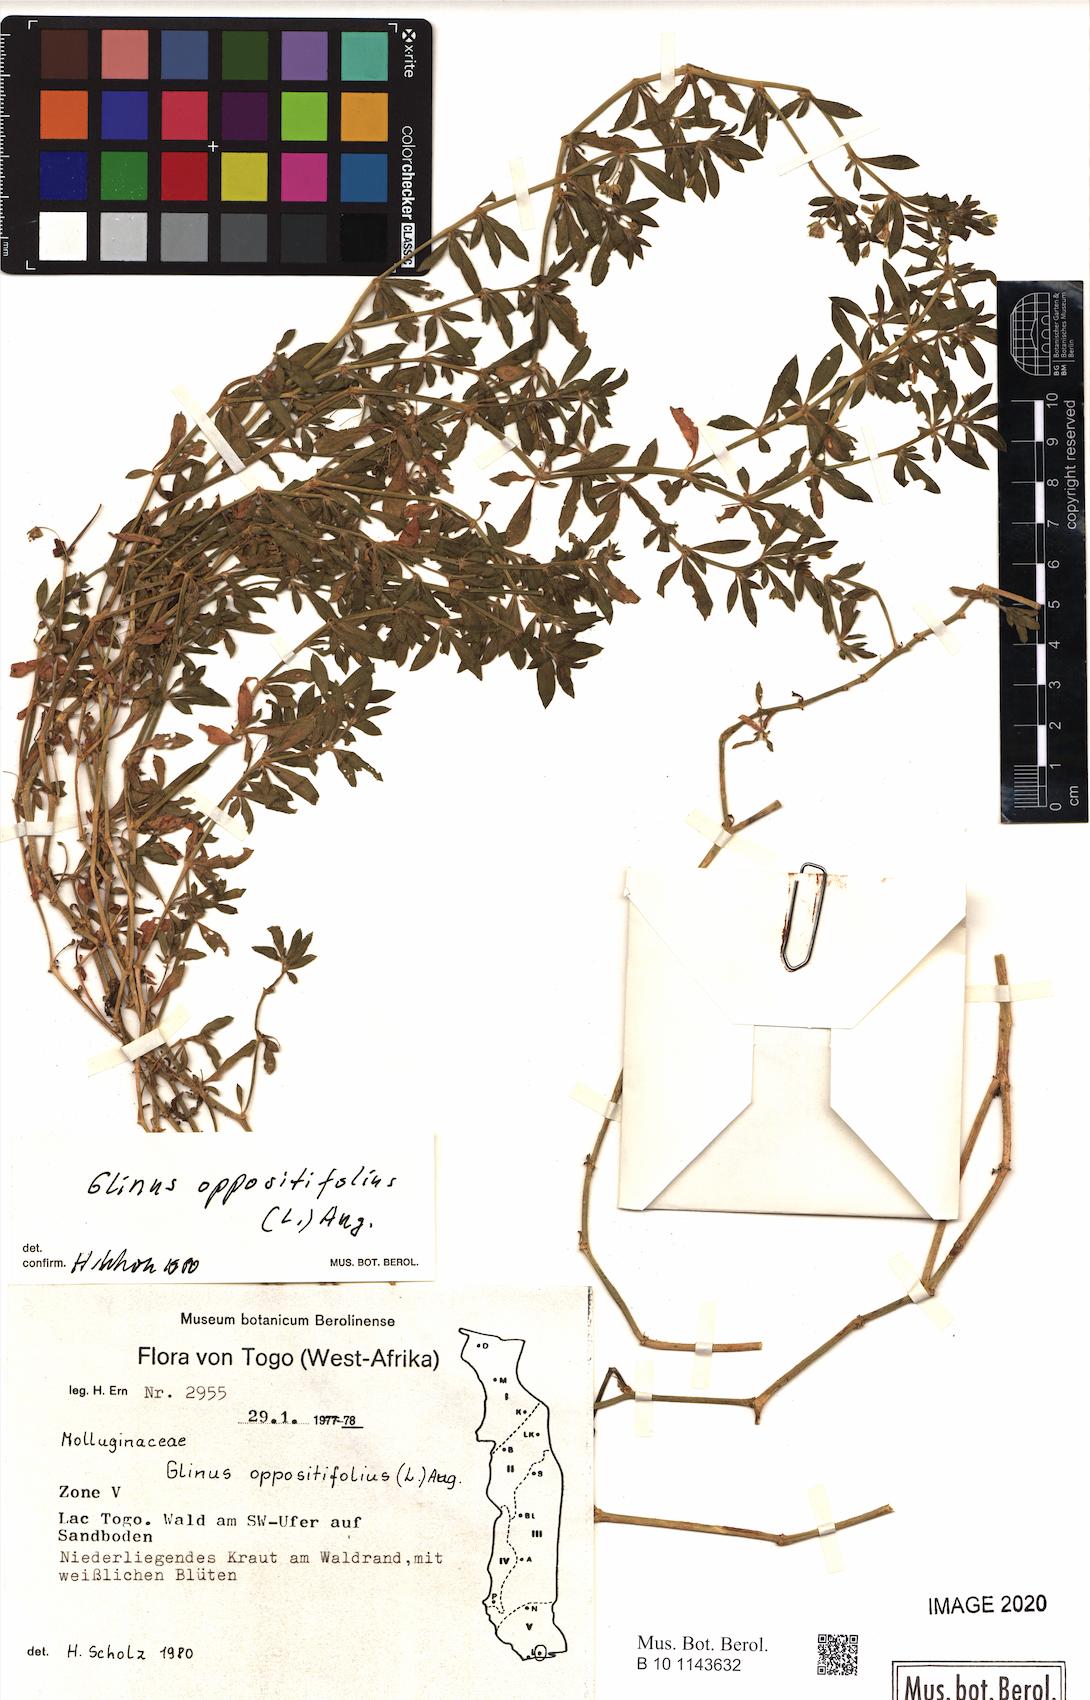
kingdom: Plantae
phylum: Tracheophyta
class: Magnoliopsida
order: Caryophyllales
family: Molluginaceae
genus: Glinus
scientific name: Glinus oppositifolius
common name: Slender carpetweed
